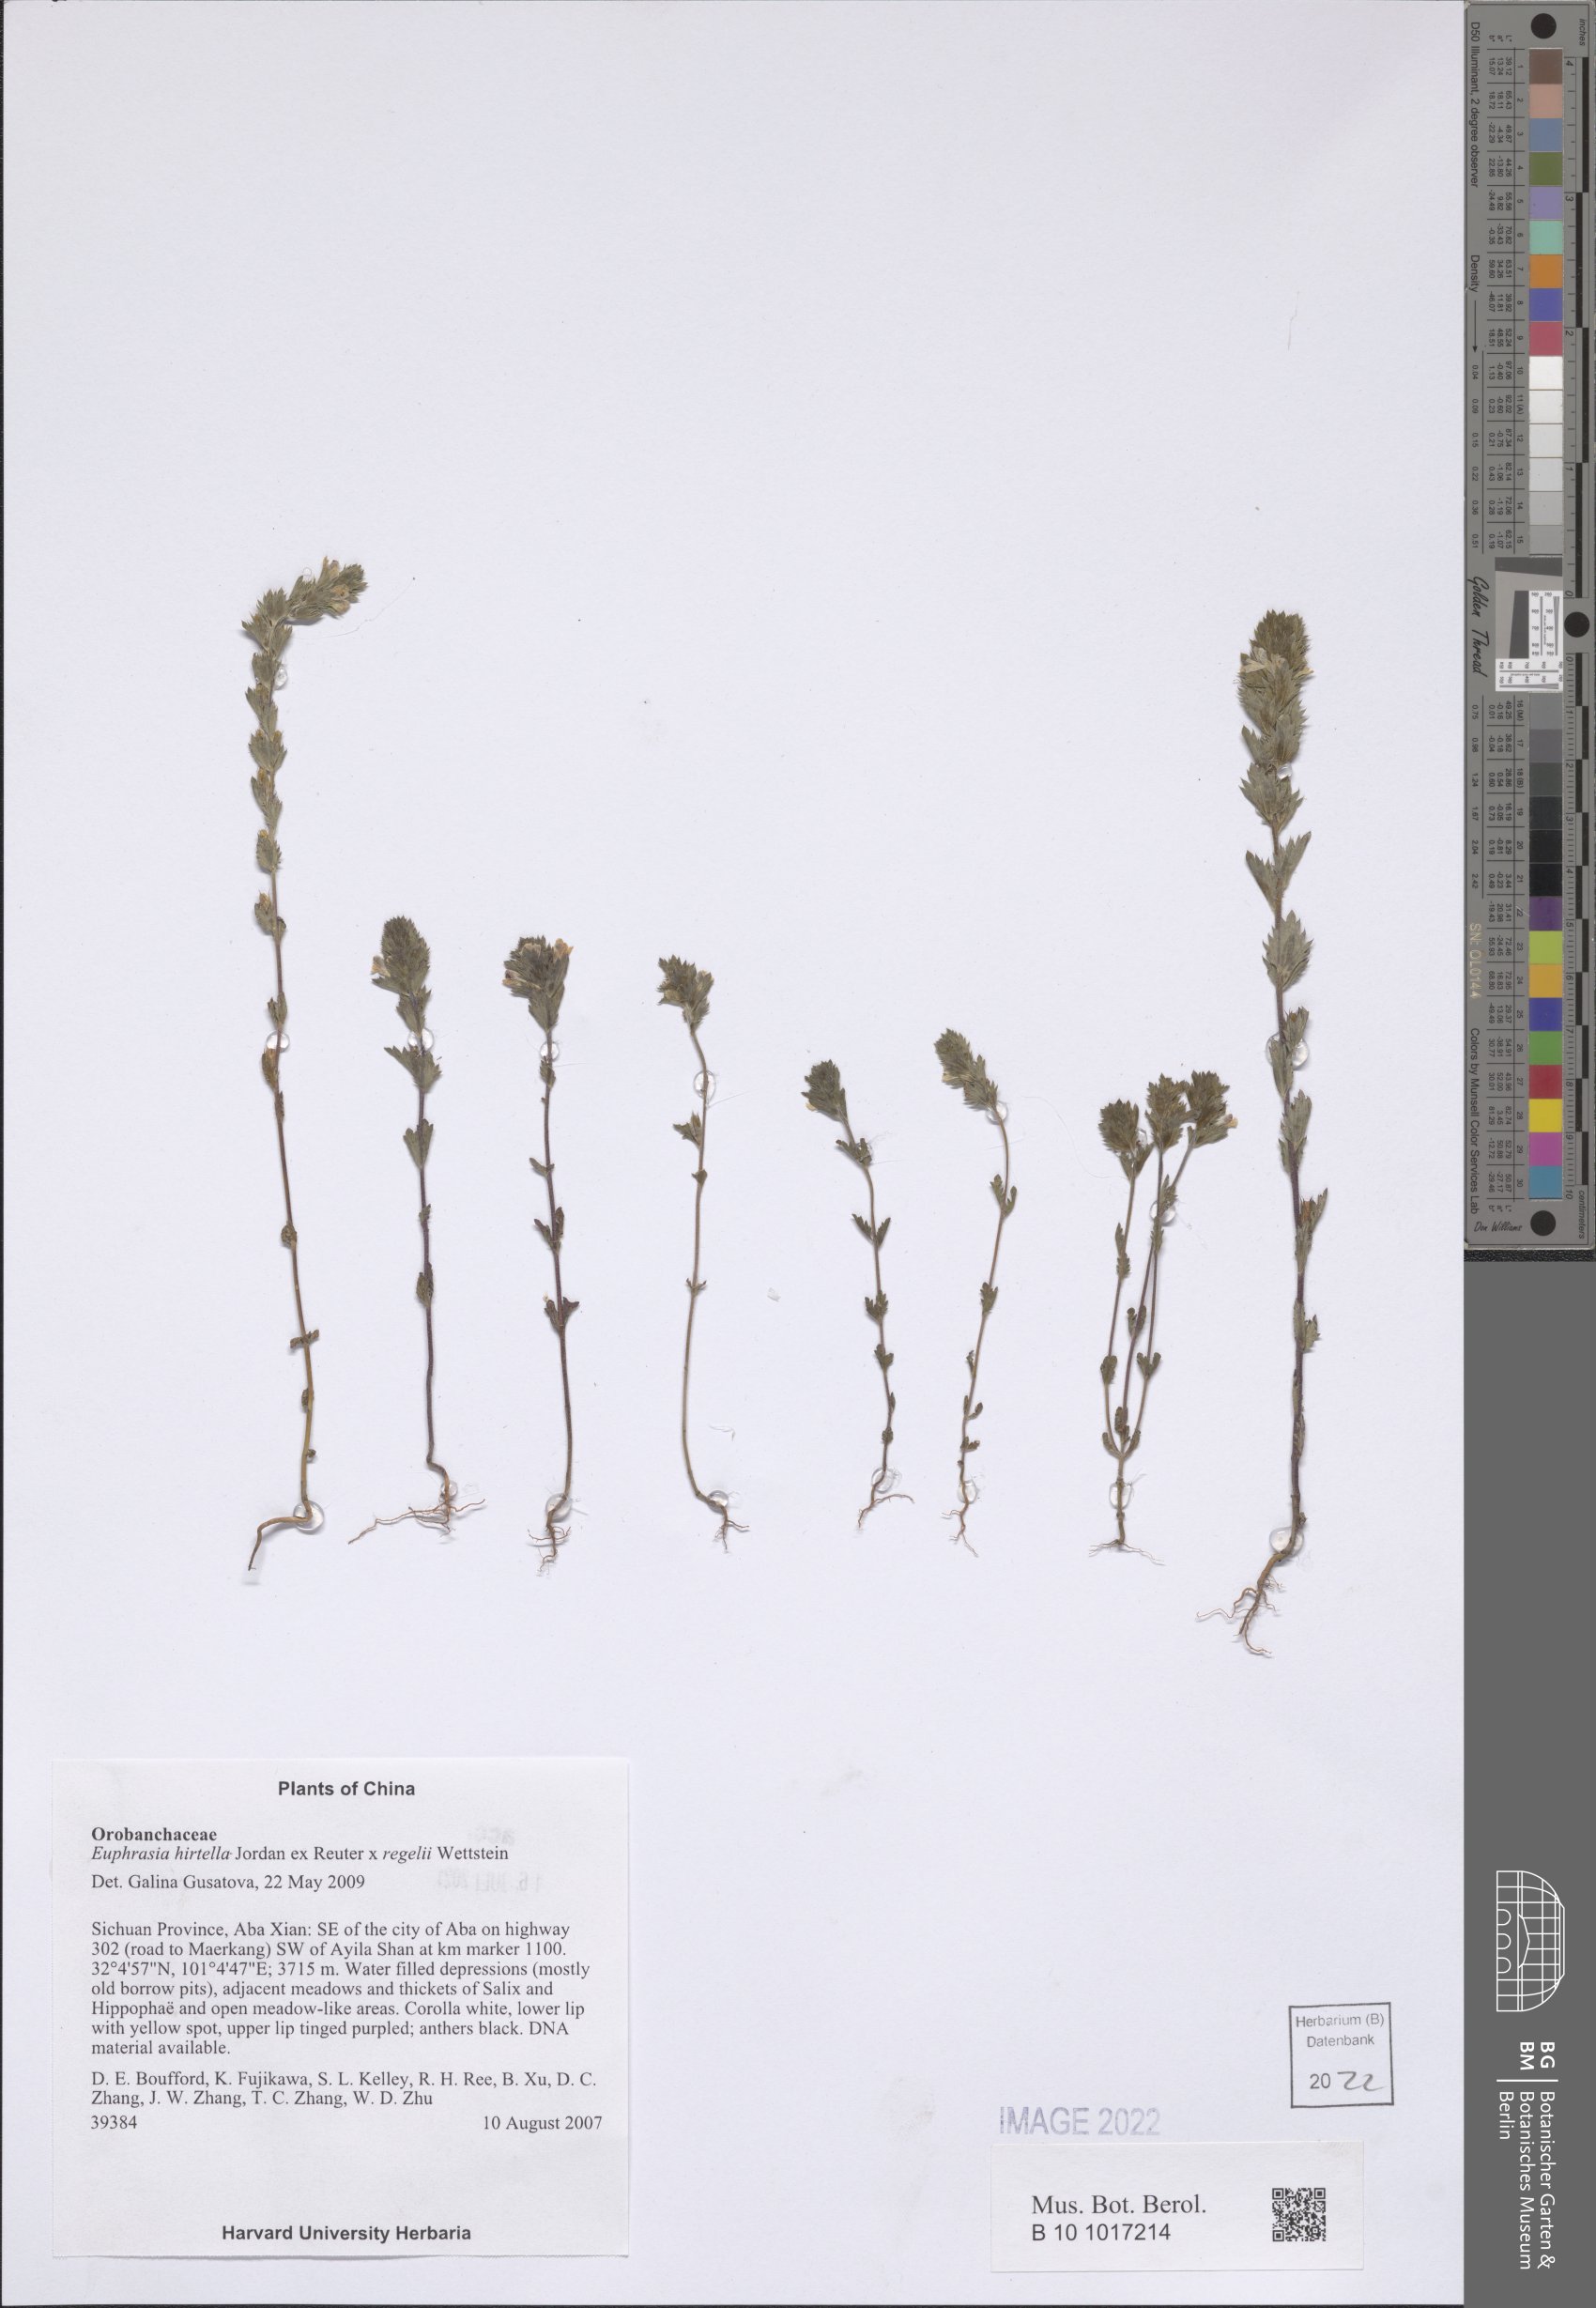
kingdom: Plantae
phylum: Tracheophyta
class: Magnoliopsida
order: Lamiales
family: Orobanchaceae
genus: Euphrasia
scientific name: Euphrasia hirtella
